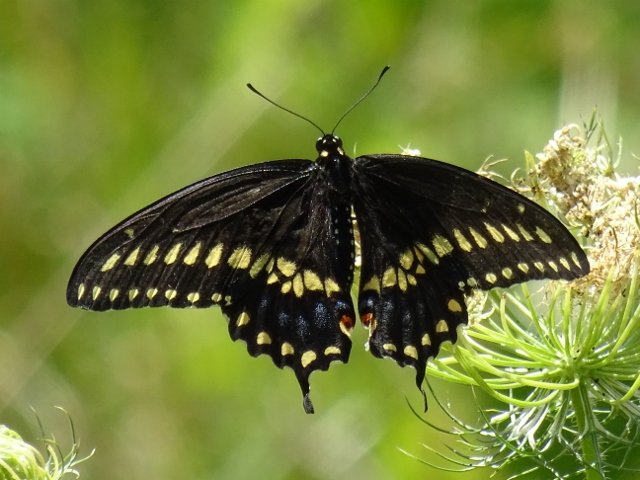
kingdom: Animalia
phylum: Arthropoda
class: Insecta
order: Lepidoptera
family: Papilionidae
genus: Papilio
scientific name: Papilio polyxenes
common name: Black Swallowtail
